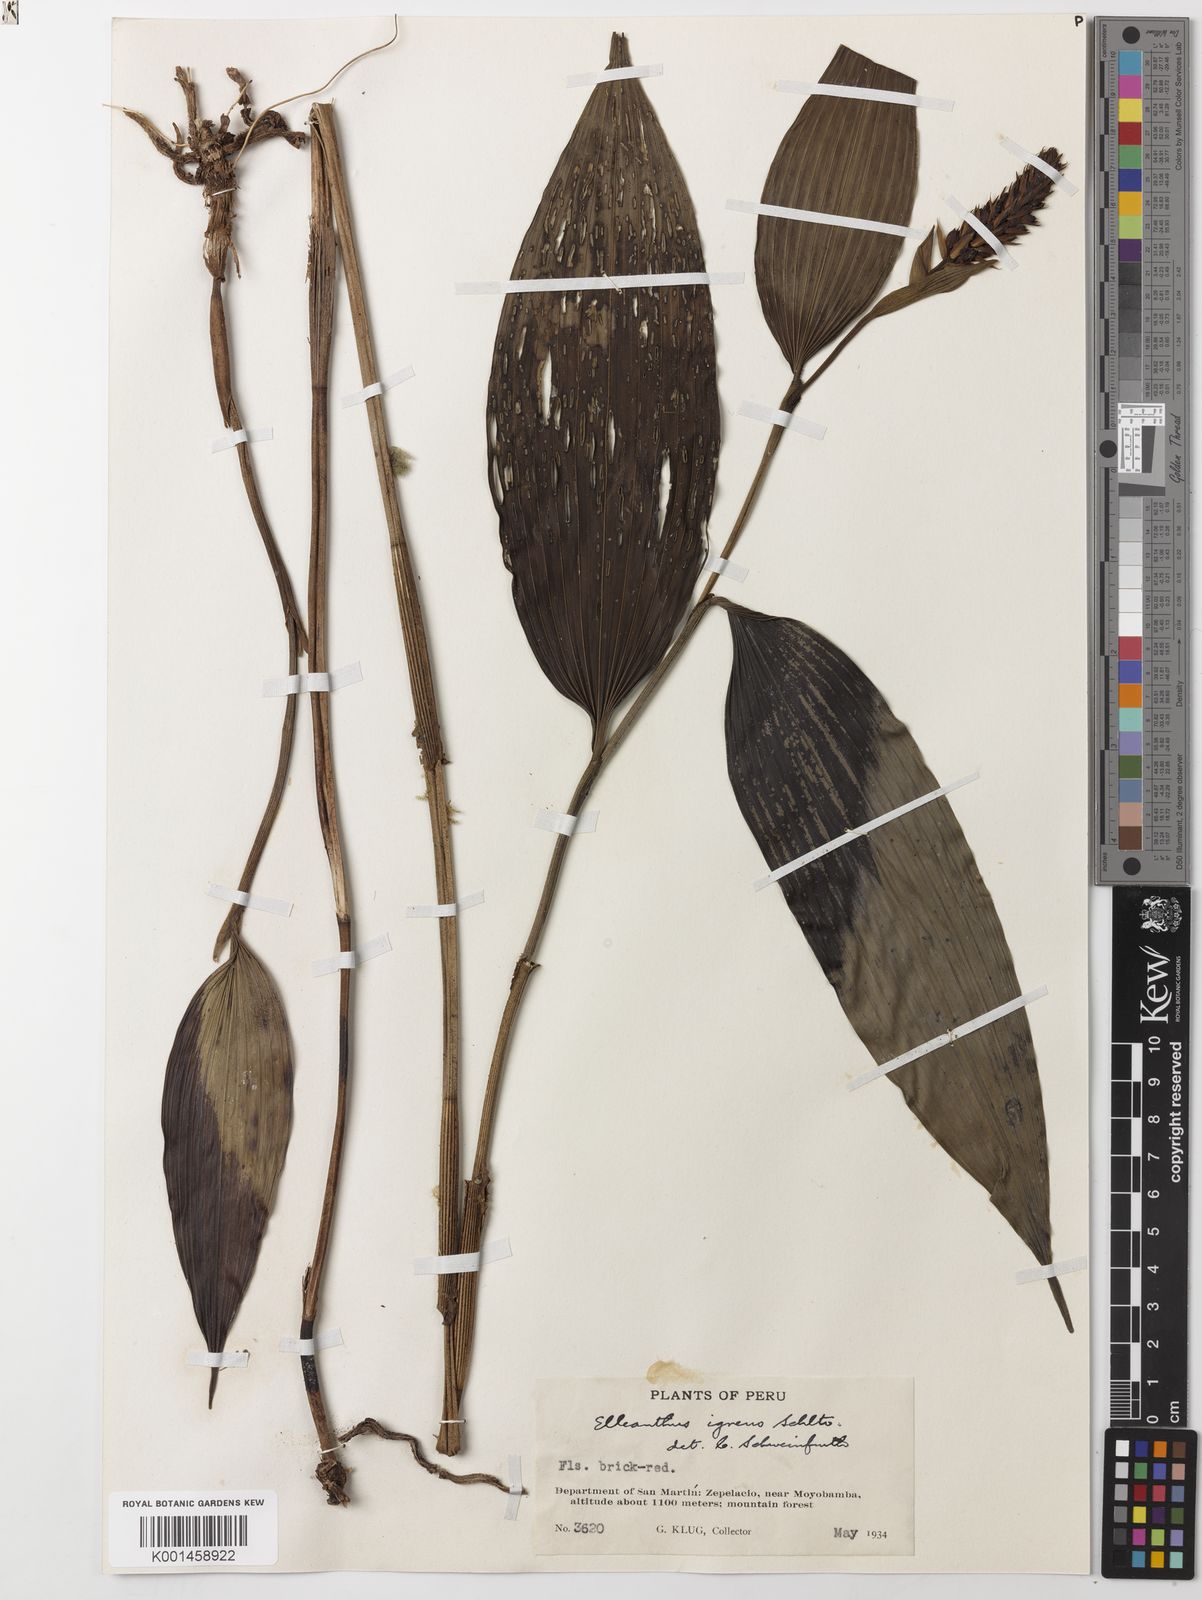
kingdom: Plantae
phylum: Tracheophyta
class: Liliopsida
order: Asparagales
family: Orchidaceae
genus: Elleanthus
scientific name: Elleanthus ruizii
